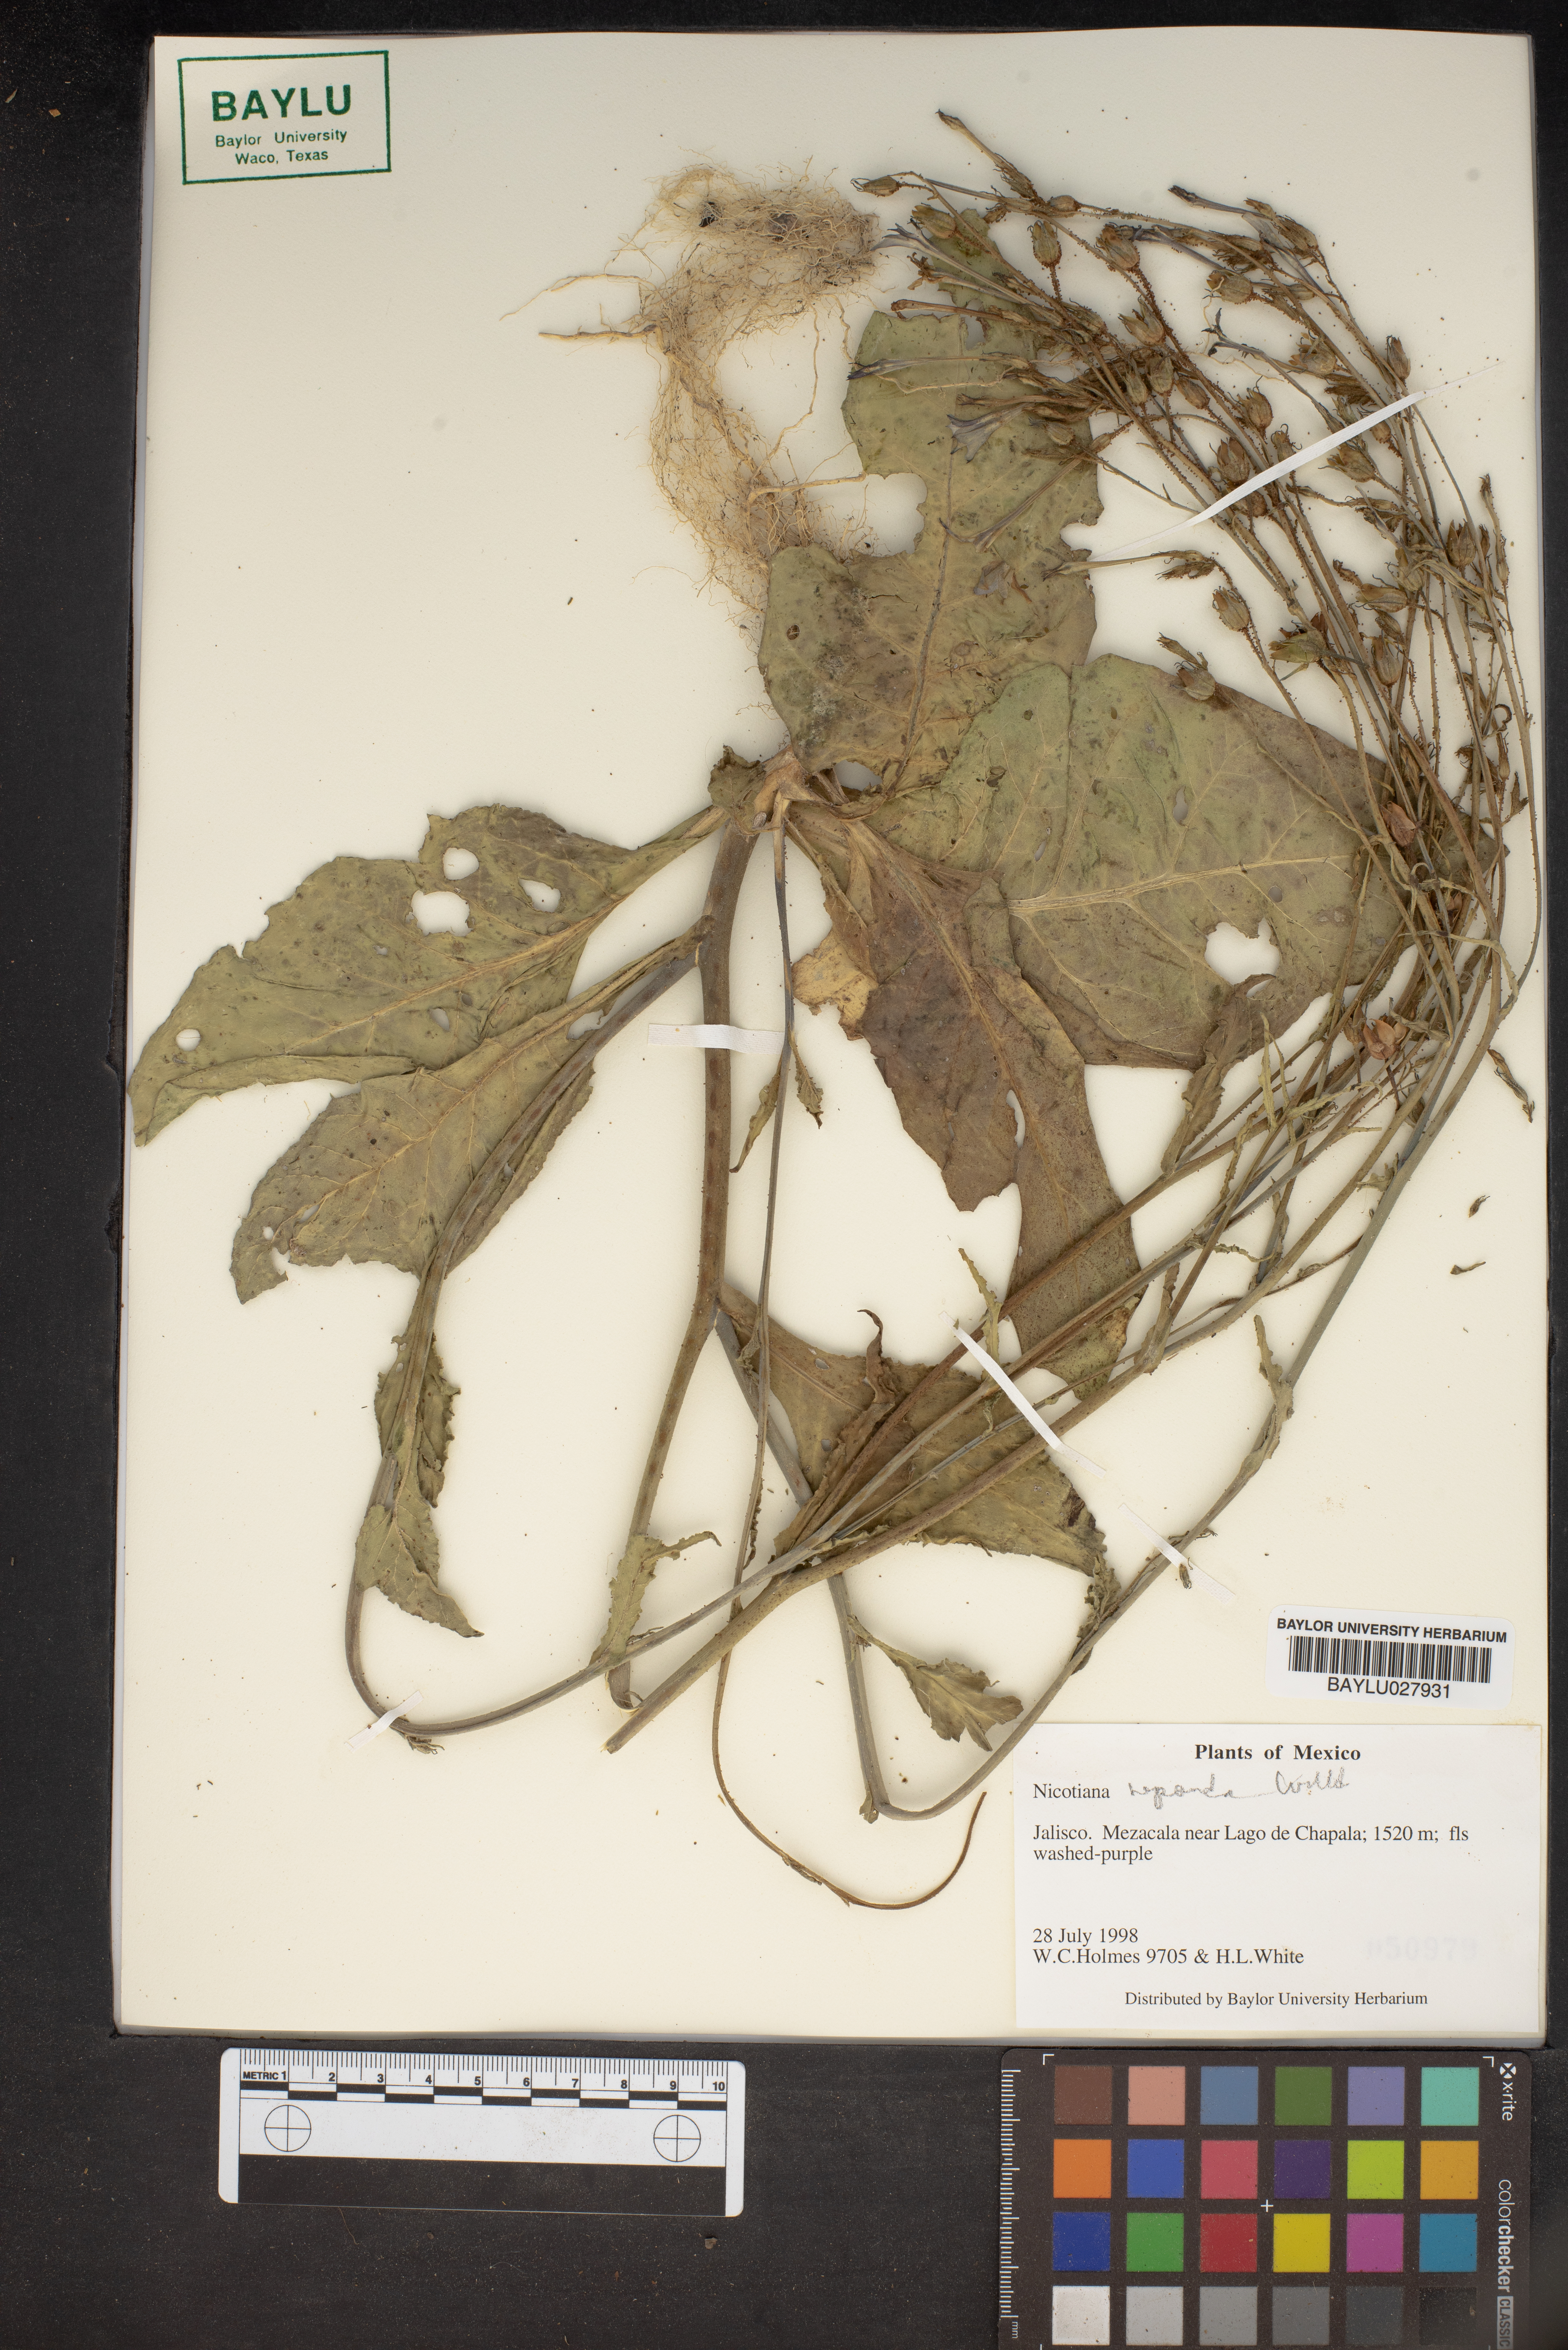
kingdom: Plantae
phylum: Tracheophyta
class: Magnoliopsida
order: Solanales
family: Solanaceae
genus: Nicotiana
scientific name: Nicotiana
